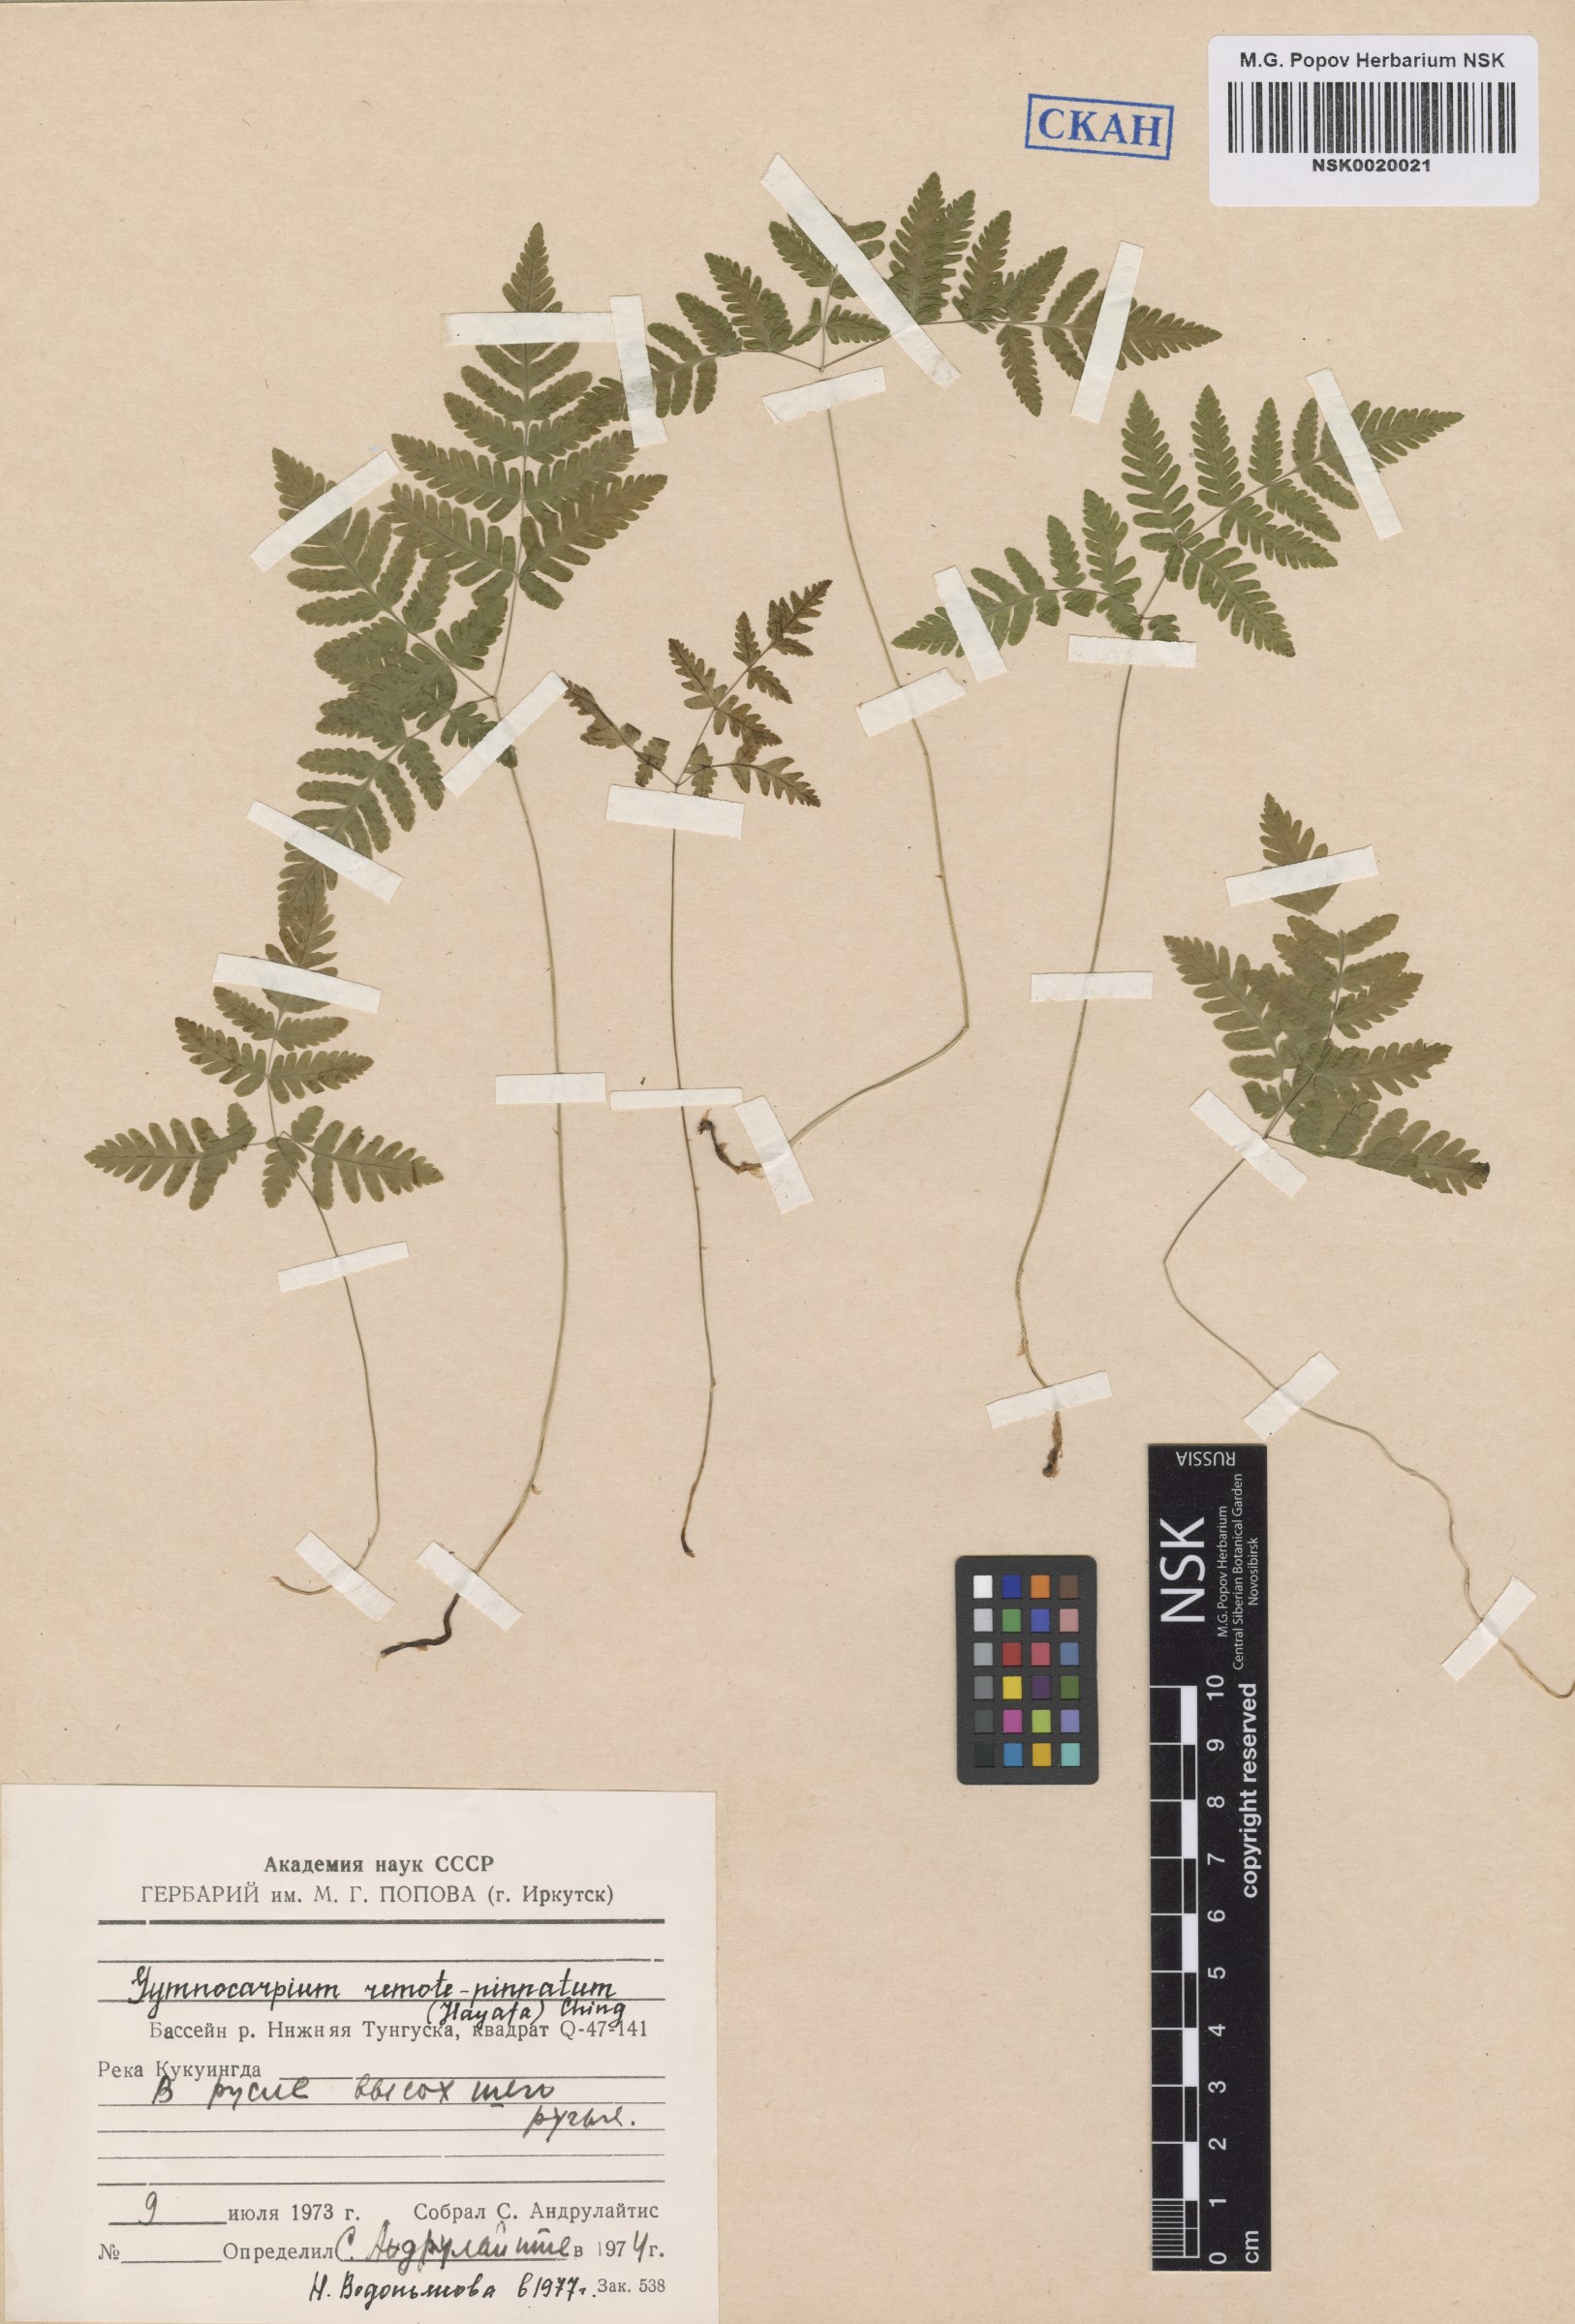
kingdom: Plantae
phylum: Tracheophyta
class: Polypodiopsida
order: Polypodiales
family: Cystopteridaceae
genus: Gymnocarpium
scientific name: Gymnocarpium remotepinnatum
